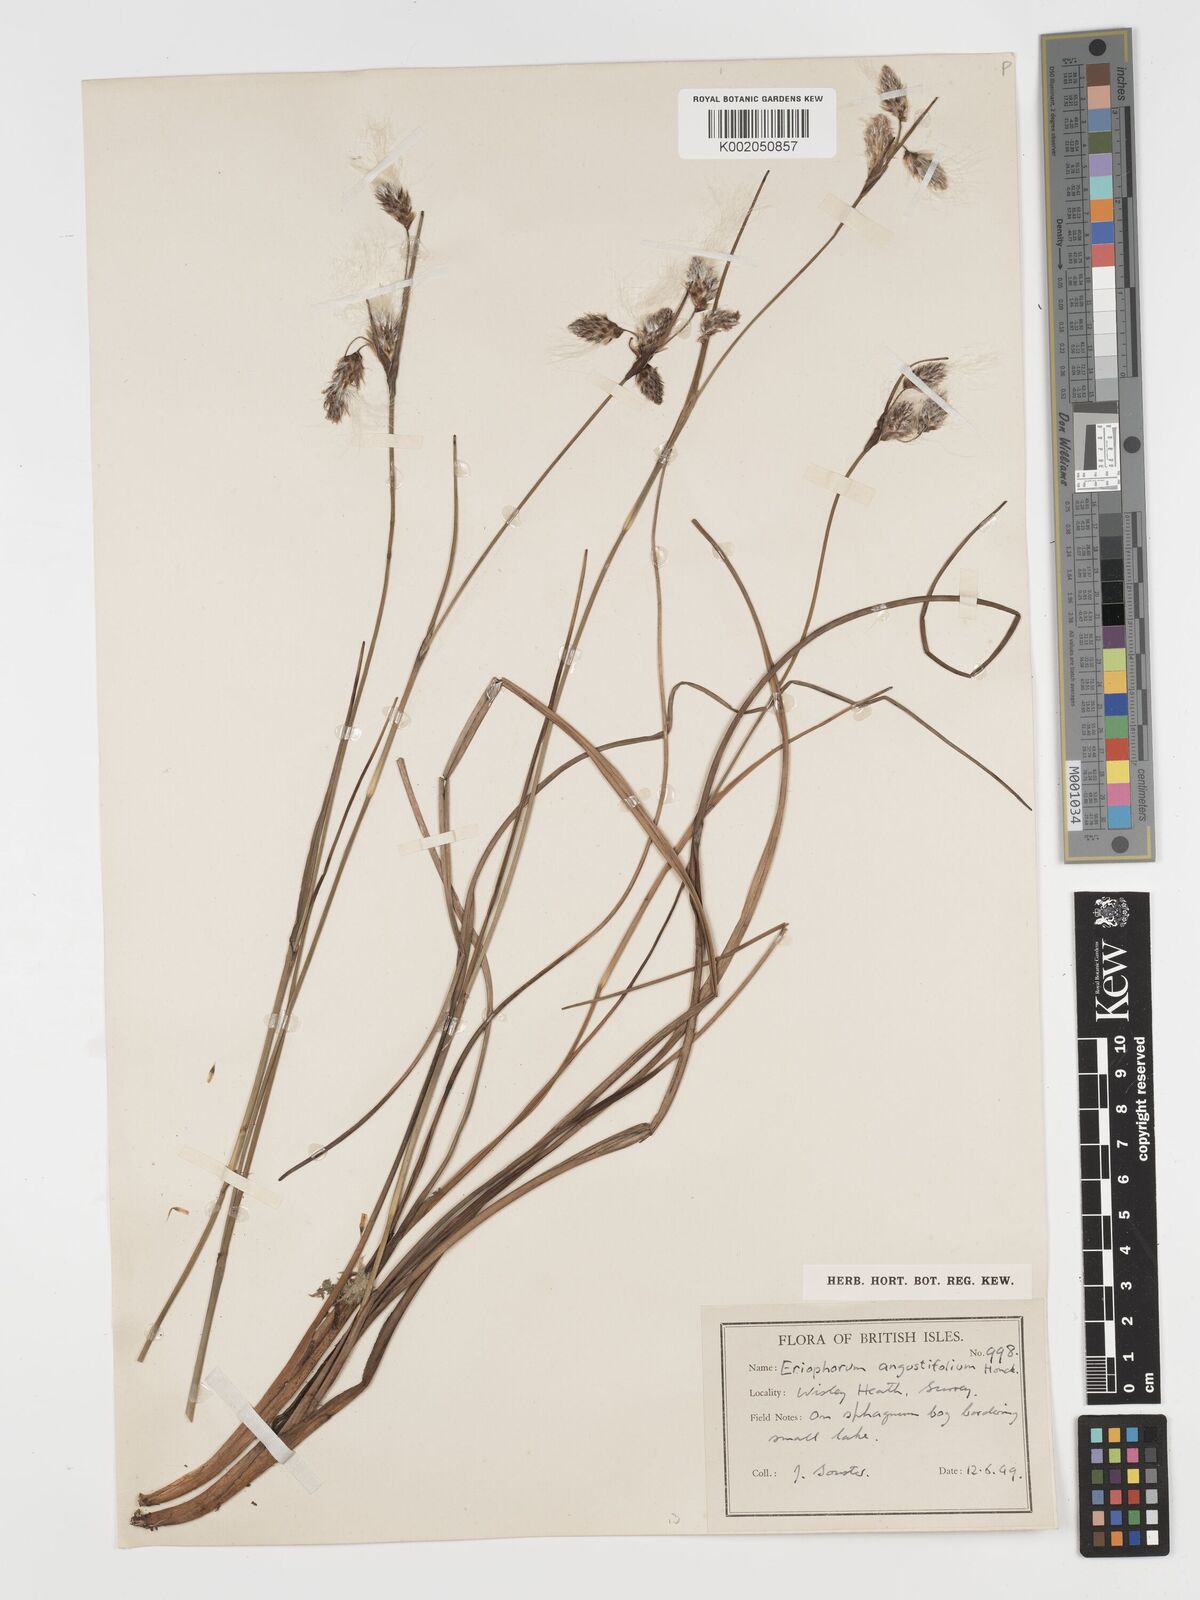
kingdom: Plantae
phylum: Tracheophyta
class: Liliopsida
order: Poales
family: Cyperaceae
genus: Eriophorum
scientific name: Eriophorum angustifolium
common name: Common cottongrass
